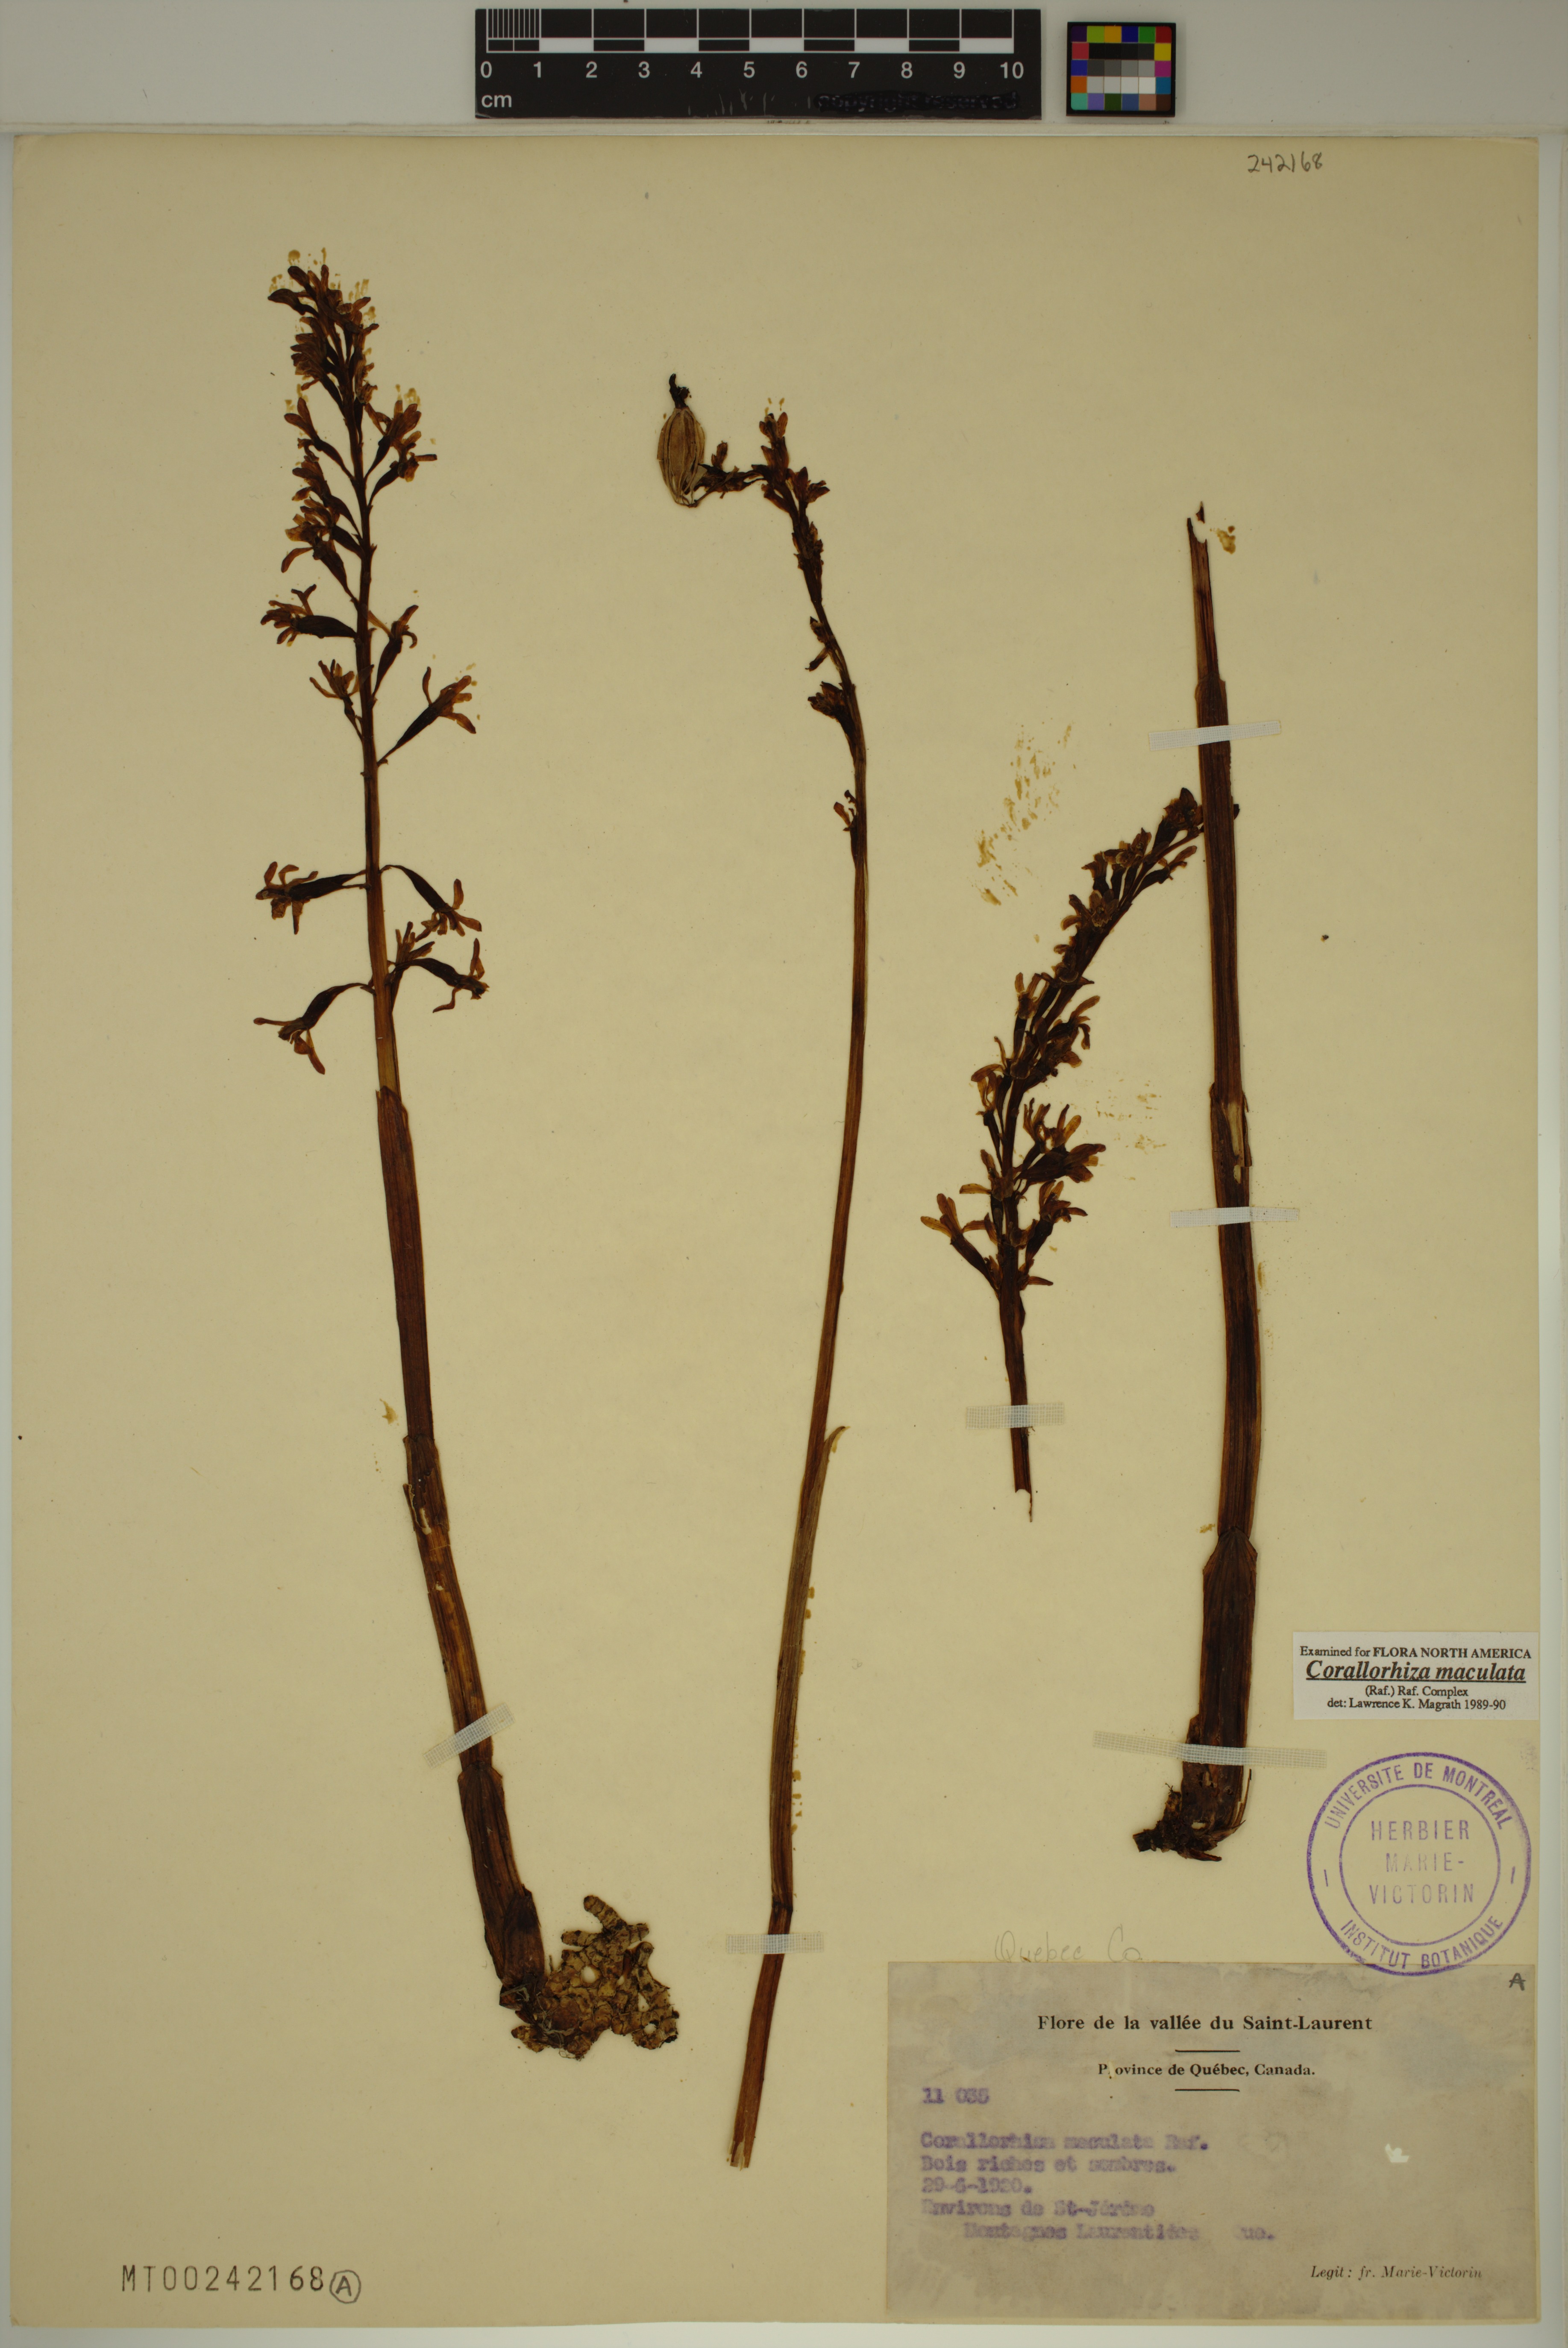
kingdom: Plantae
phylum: Tracheophyta
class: Liliopsida
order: Asparagales
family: Orchidaceae
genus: Corallorhiza
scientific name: Corallorhiza maculata
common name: Spotted coralroot
